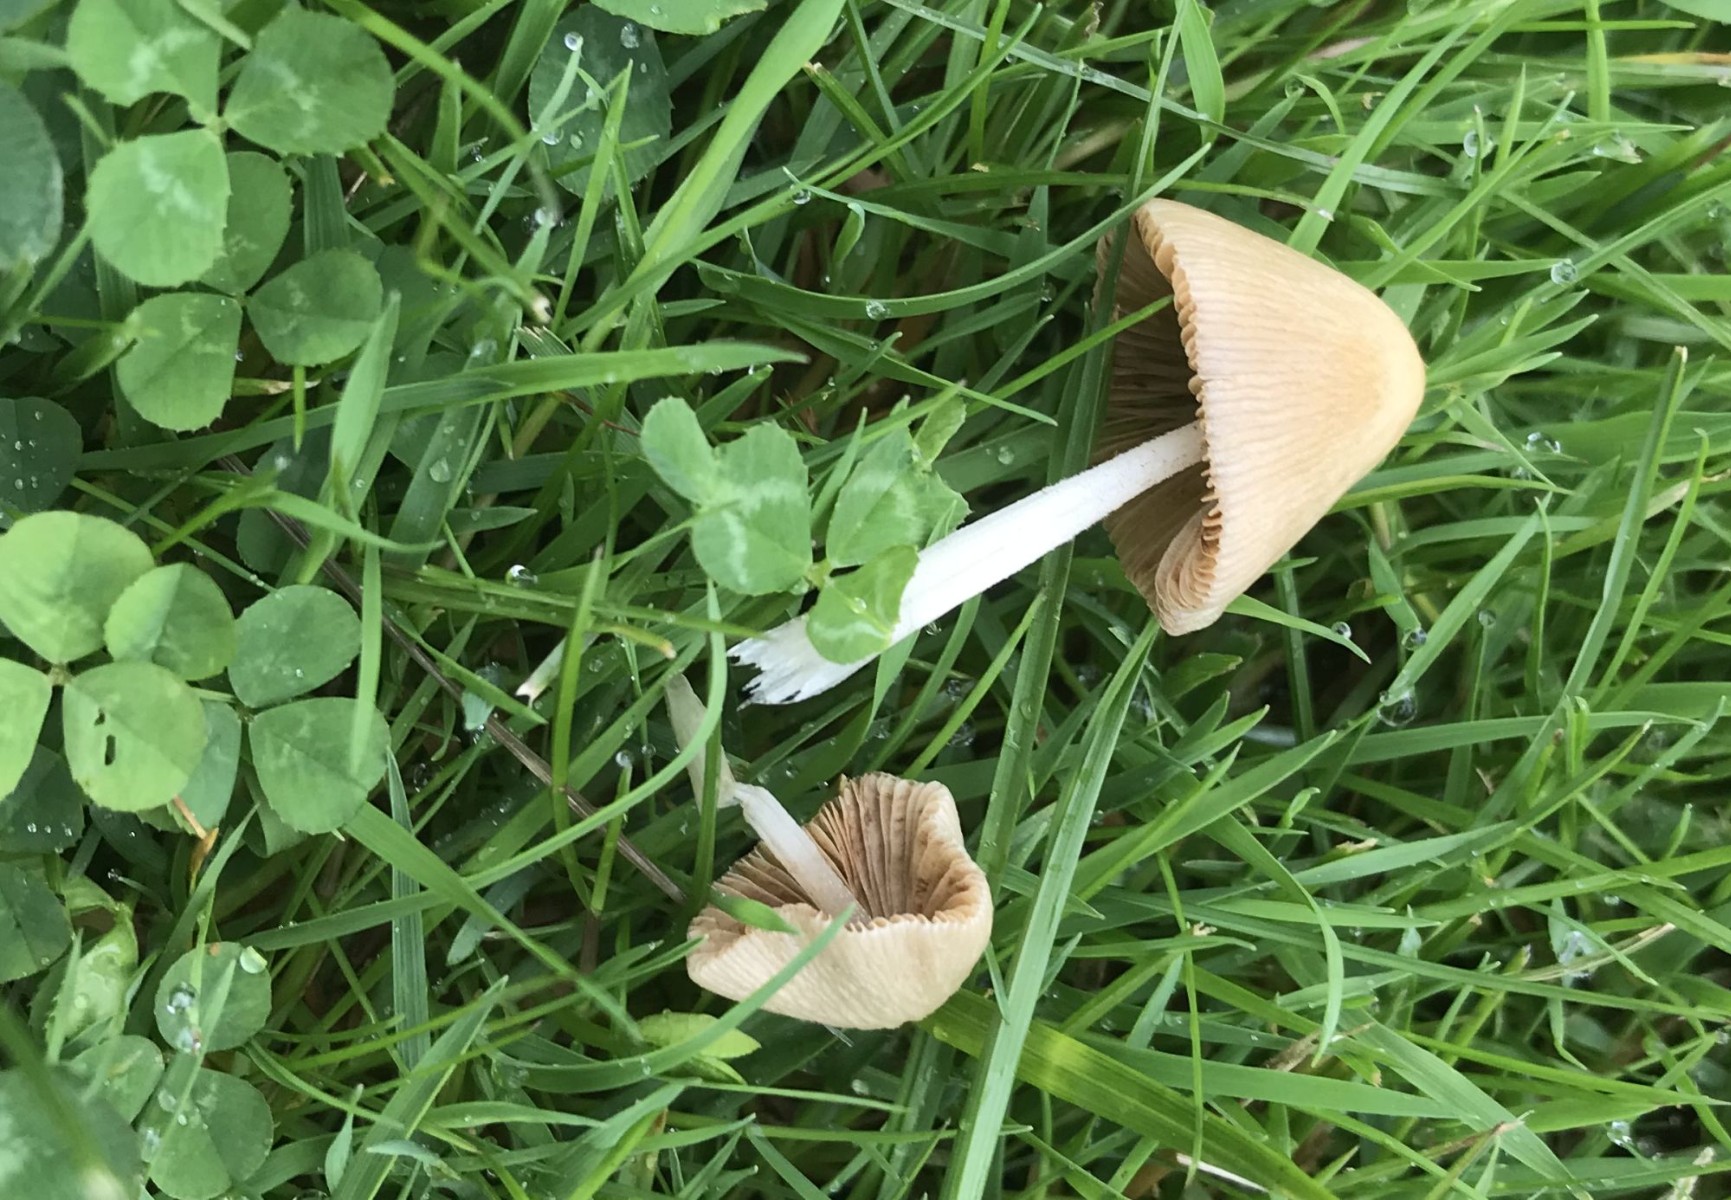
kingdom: Fungi
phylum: Basidiomycota
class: Agaricomycetes
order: Agaricales
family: Bolbitiaceae
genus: Conocybe
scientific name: Conocybe apala
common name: mælkehvid keglehat
